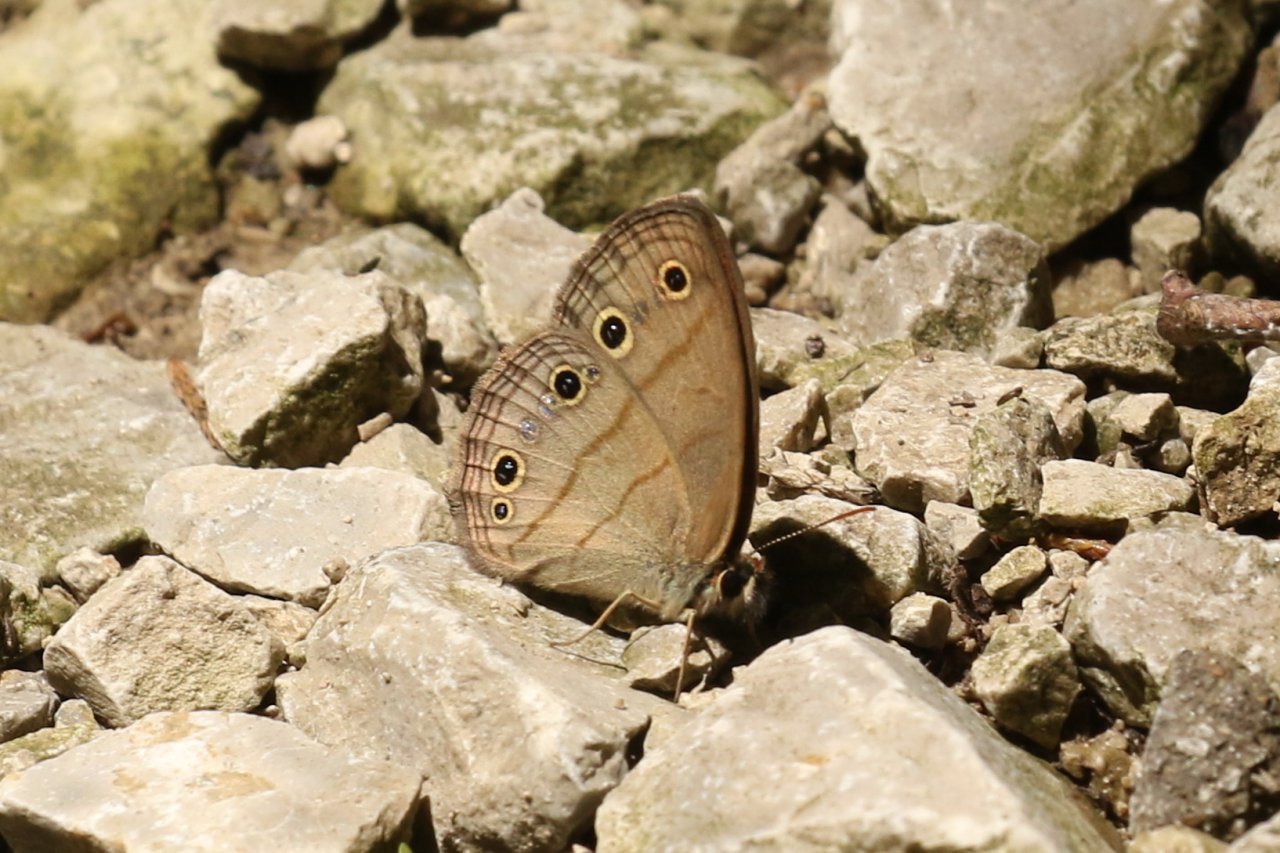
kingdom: Animalia
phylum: Arthropoda
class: Insecta
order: Lepidoptera
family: Nymphalidae
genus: Euptychia
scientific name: Euptychia cymela
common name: Little Wood Satyr
